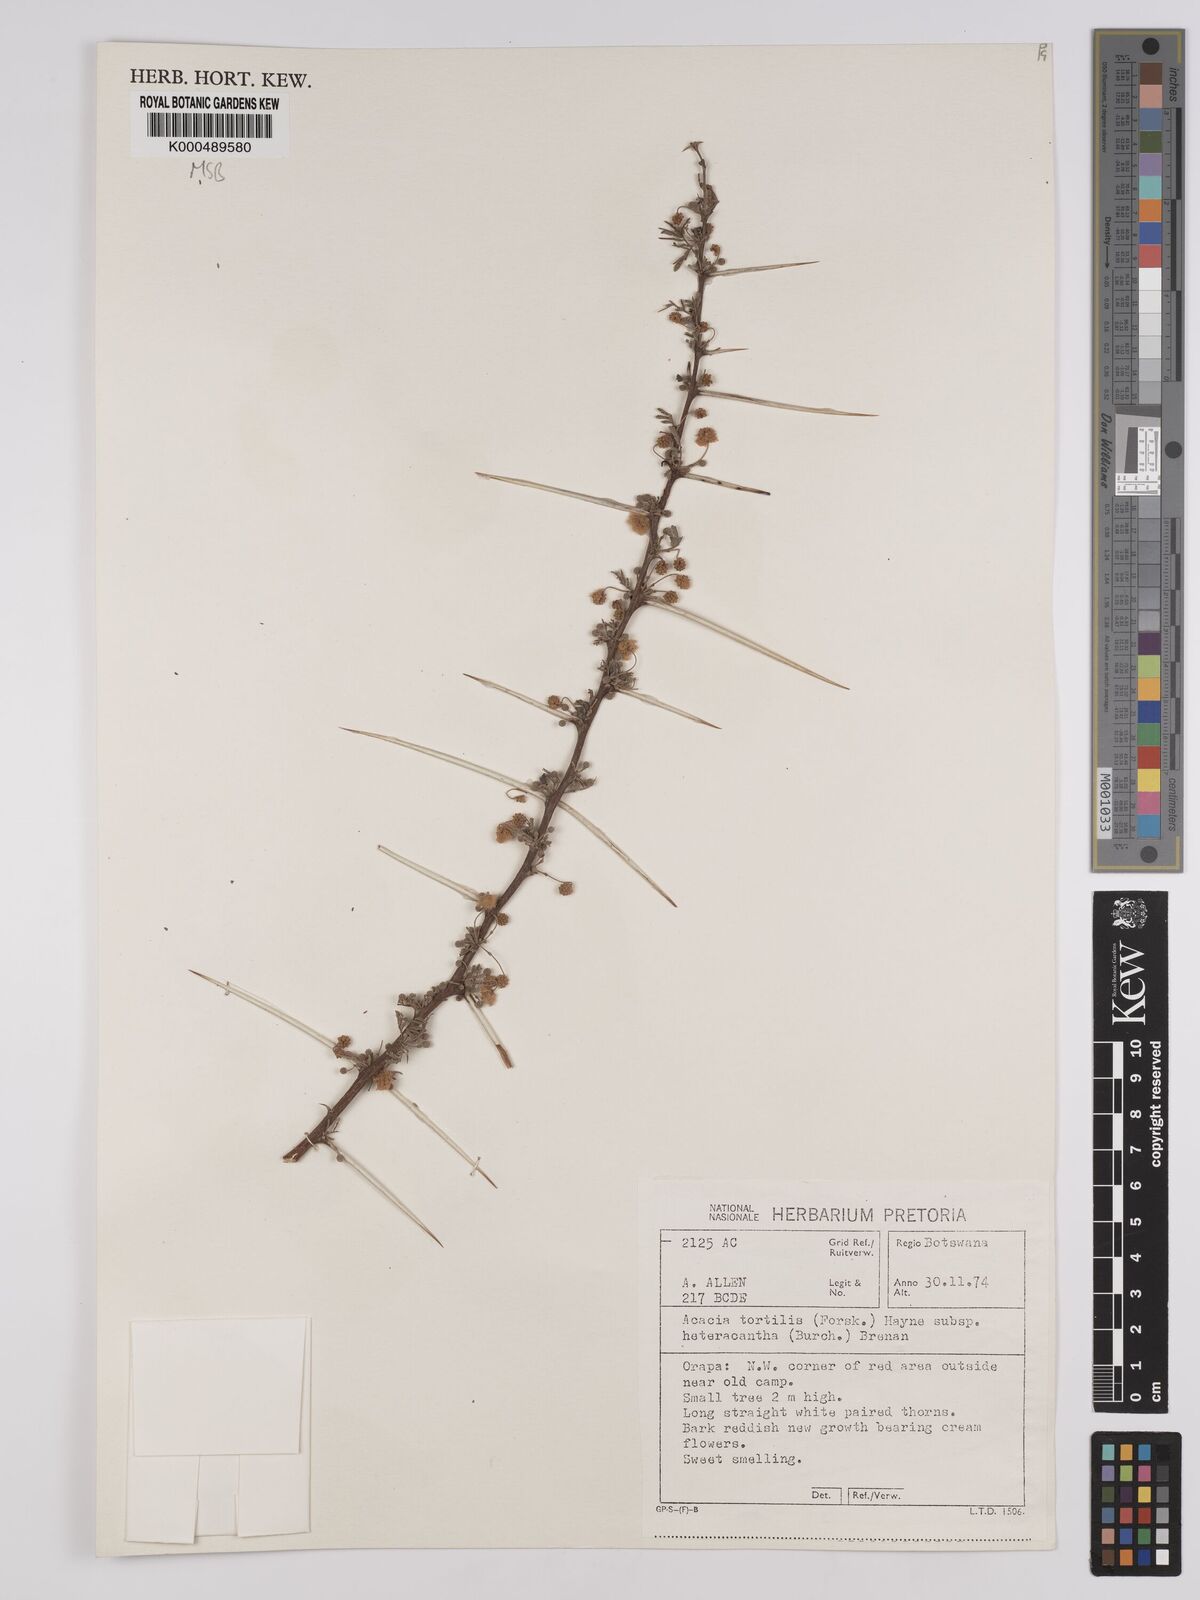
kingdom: Plantae
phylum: Tracheophyta
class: Magnoliopsida
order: Fabales
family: Fabaceae
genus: Vachellia
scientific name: Vachellia tortilis
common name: Umbrella thorn acacia
